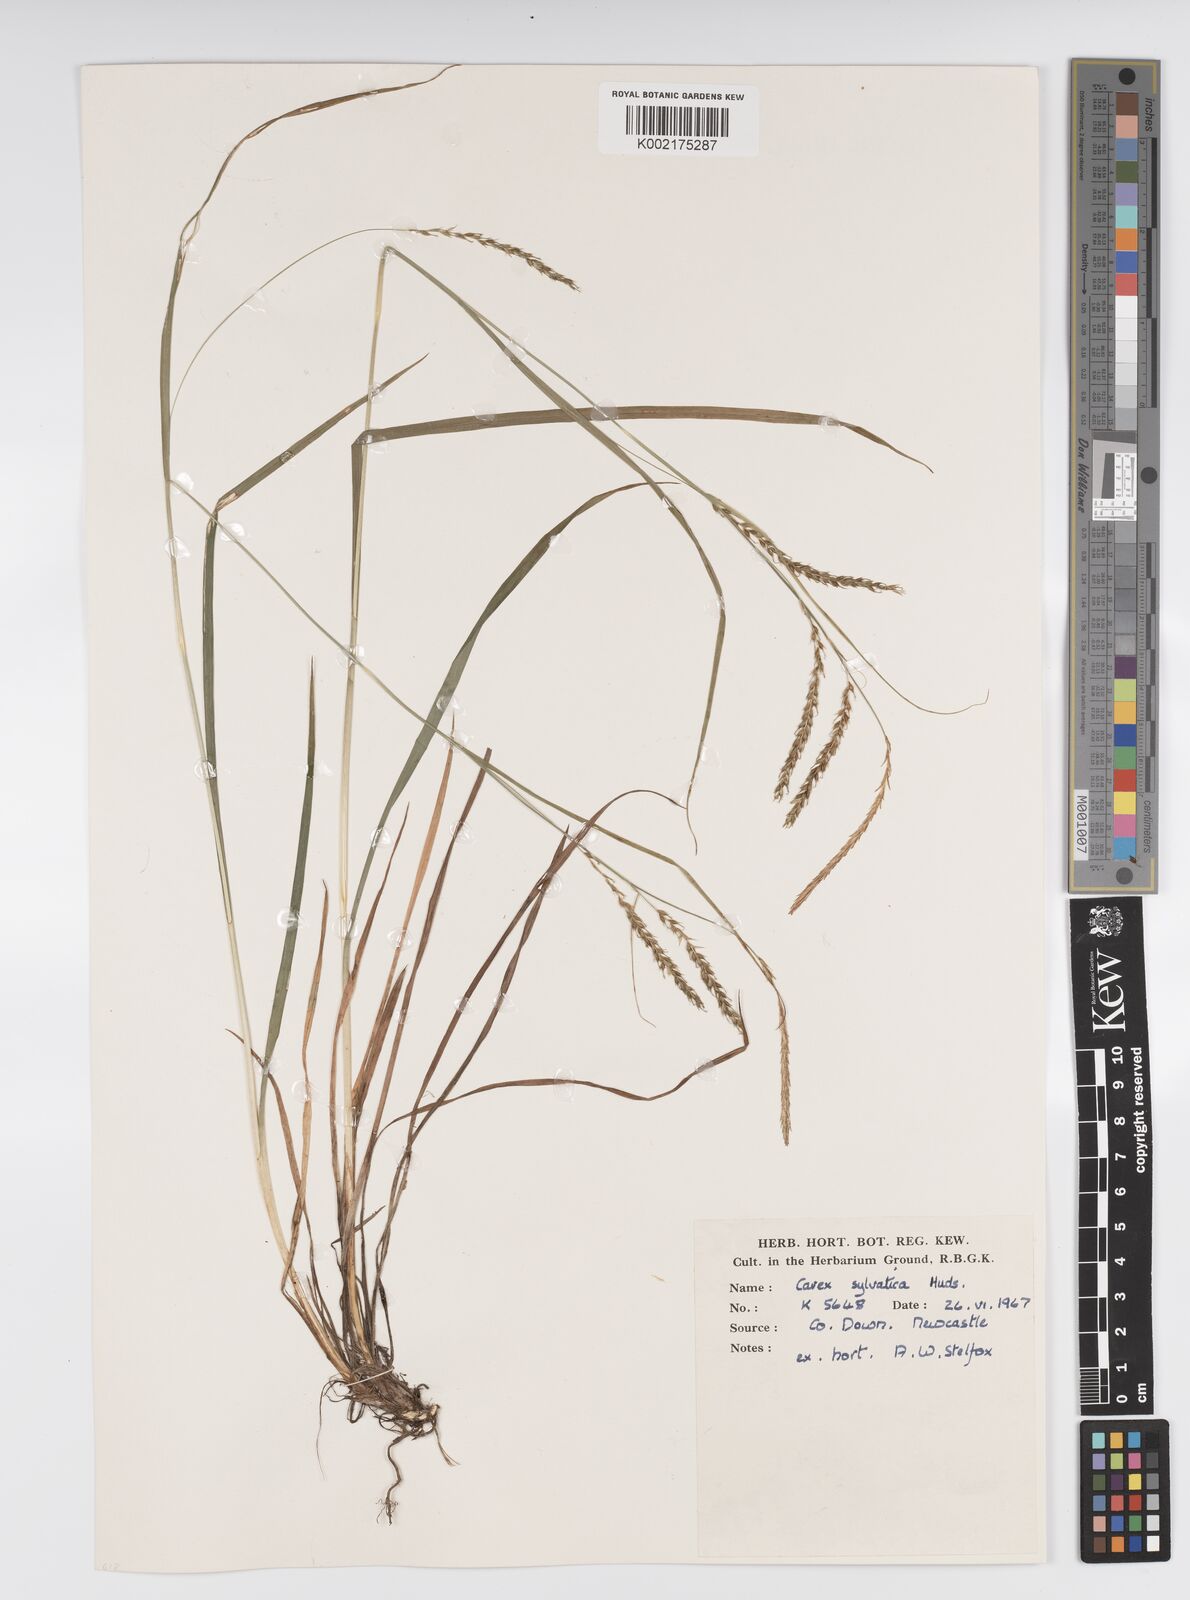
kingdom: Plantae
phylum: Tracheophyta
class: Liliopsida
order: Poales
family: Cyperaceae
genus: Carex
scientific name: Carex sylvatica
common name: Wood-sedge
